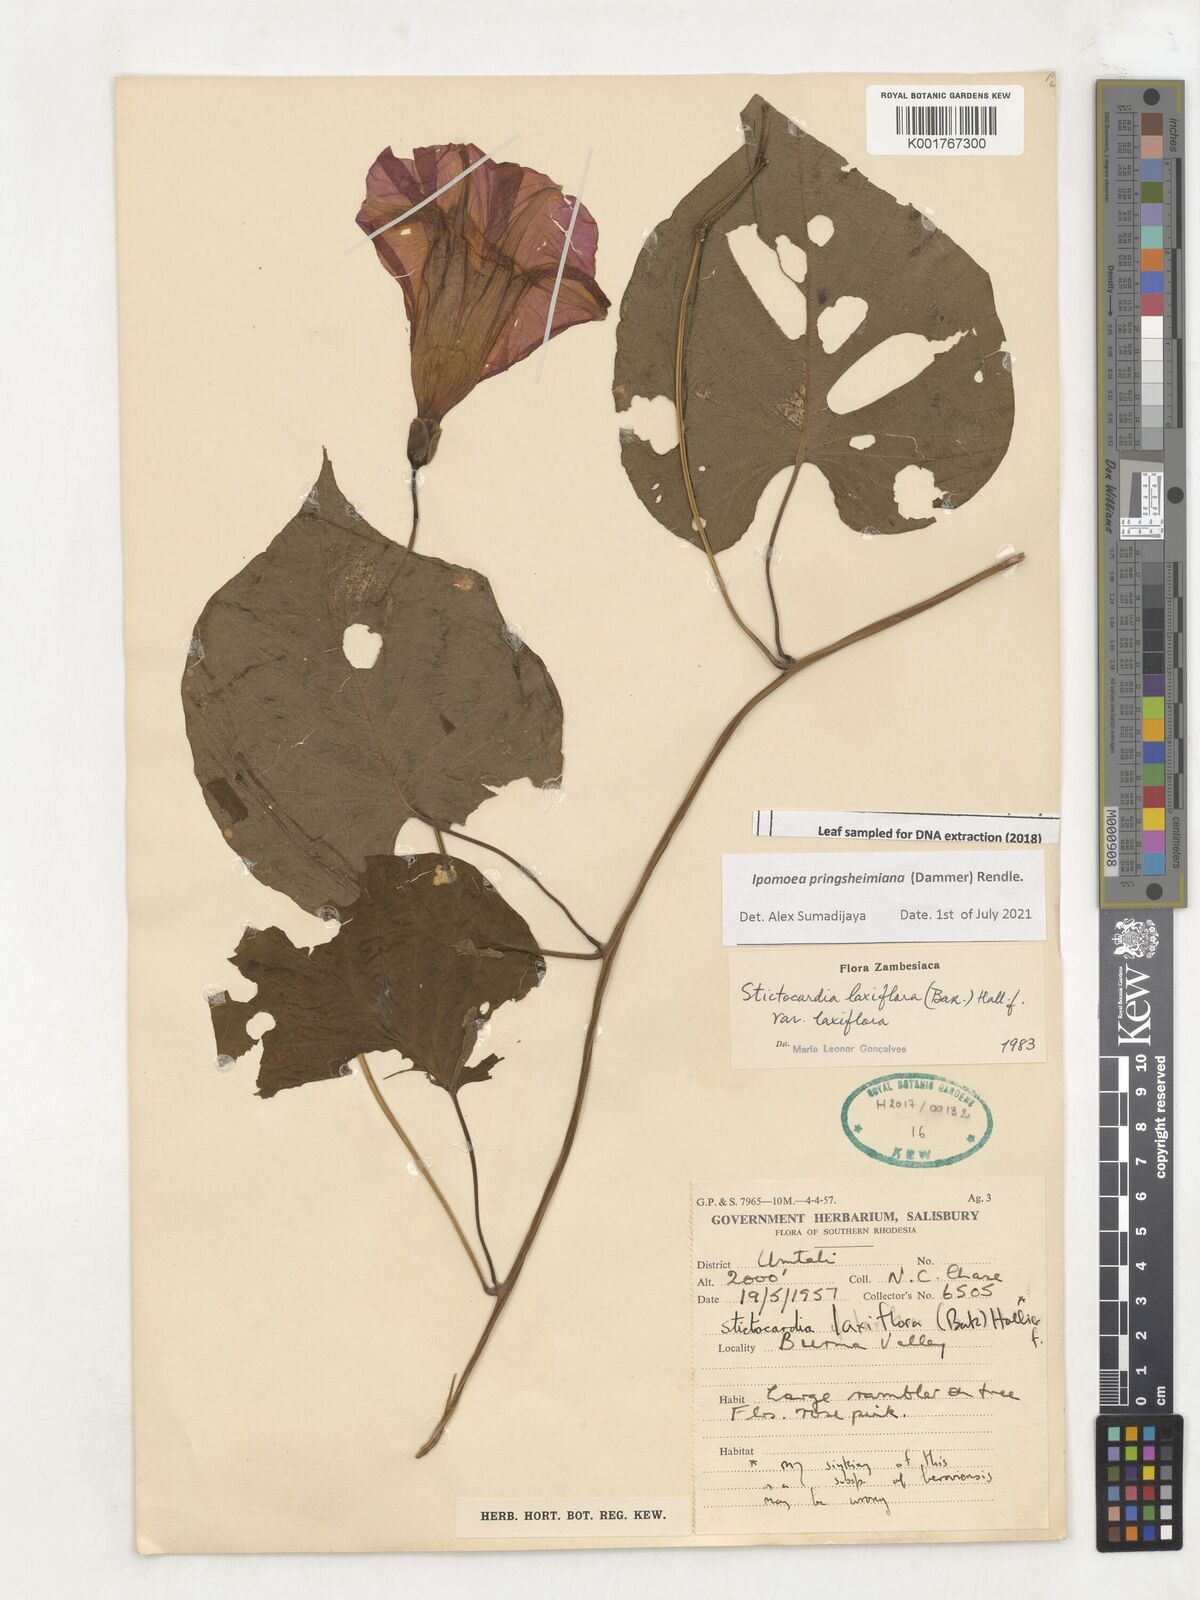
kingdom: Plantae
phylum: Tracheophyta
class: Magnoliopsida
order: Solanales
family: Convolvulaceae
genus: Stictocardia
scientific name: Stictocardia laxiflora
